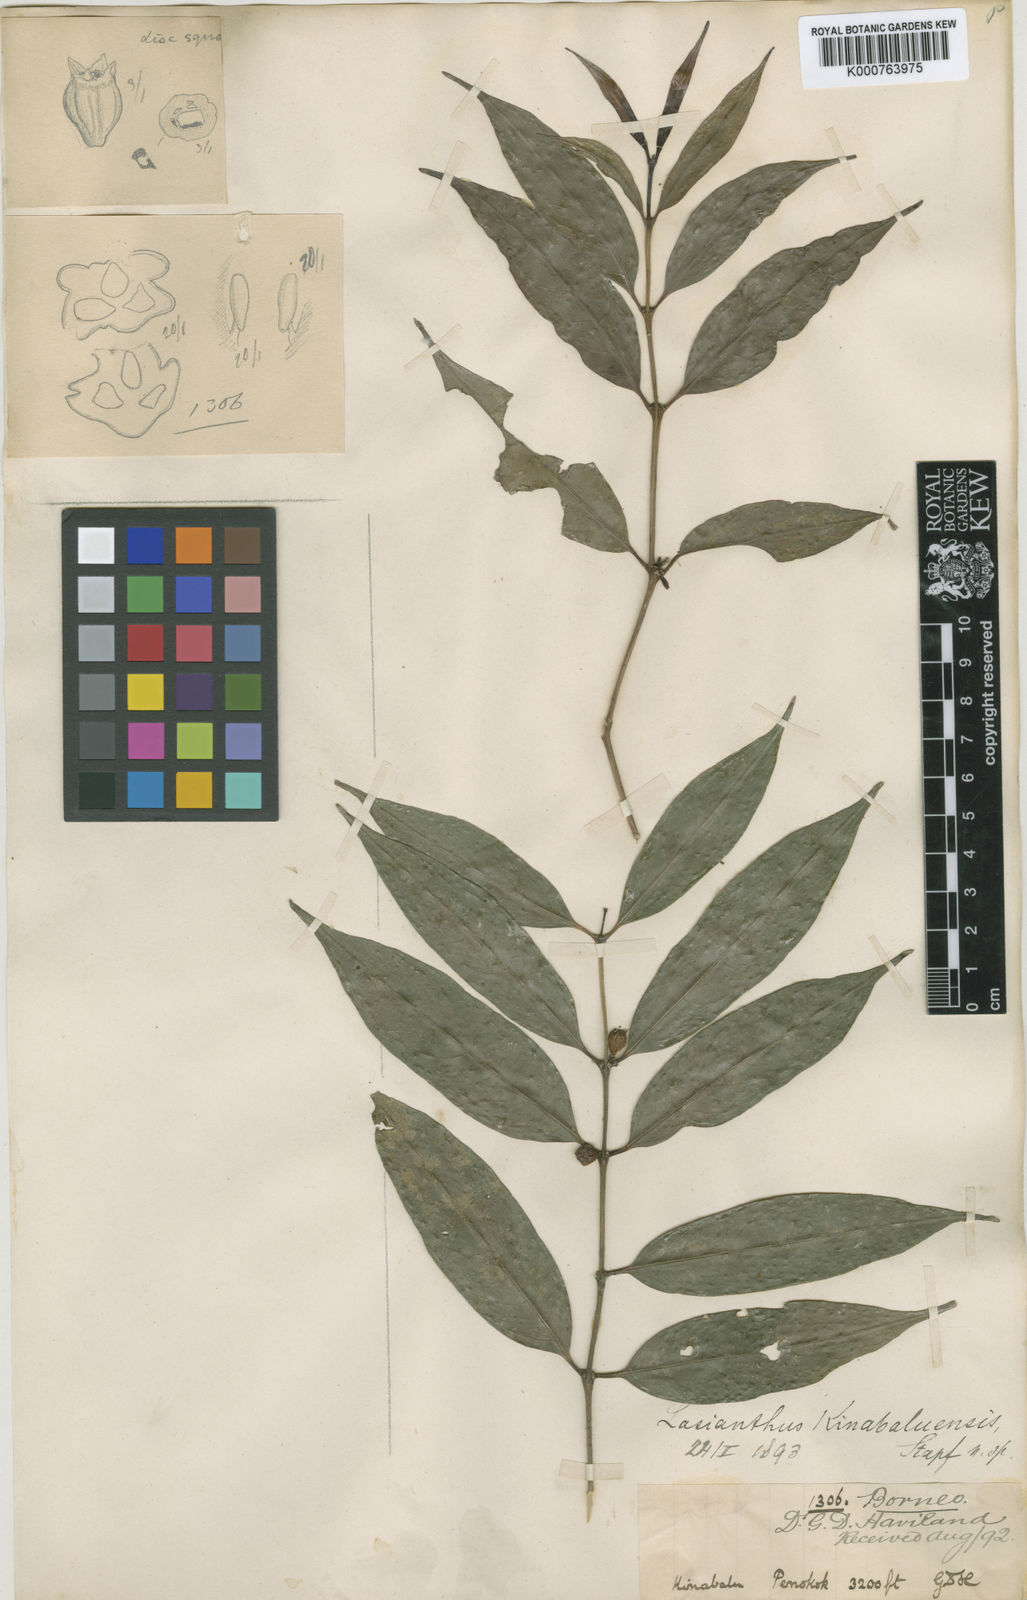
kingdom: Plantae
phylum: Tracheophyta
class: Magnoliopsida
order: Gentianales
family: Rubiaceae
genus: Lasianthus
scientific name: Lasianthus kinabaluensis
